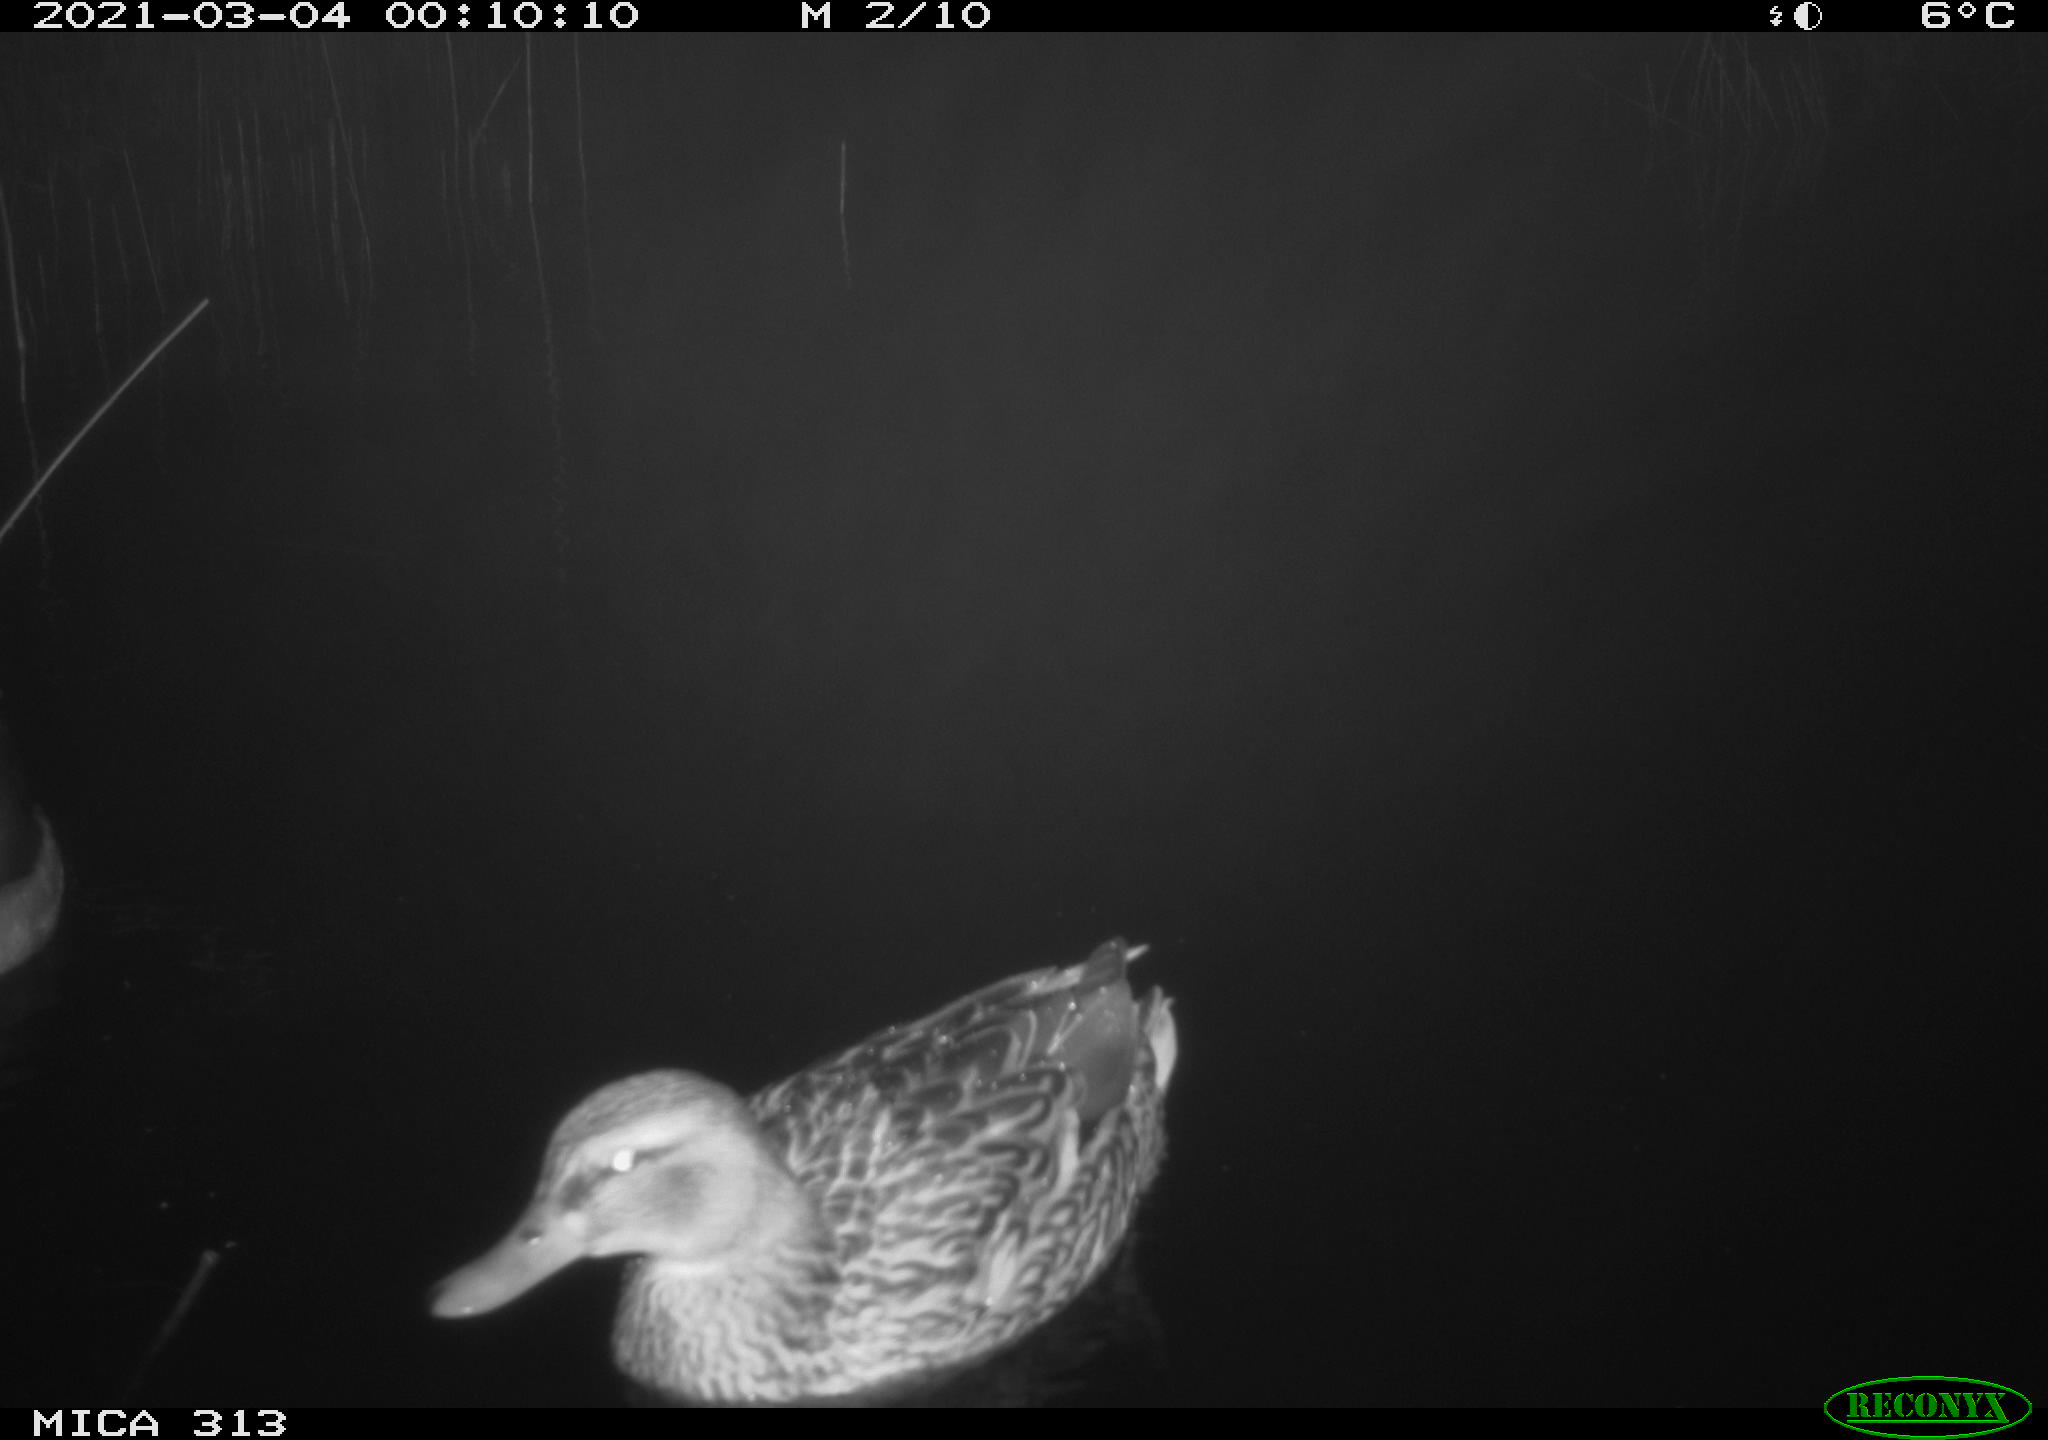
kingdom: Animalia
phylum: Chordata
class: Aves
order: Anseriformes
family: Anatidae
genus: Mareca
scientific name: Mareca strepera
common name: Gadwall
